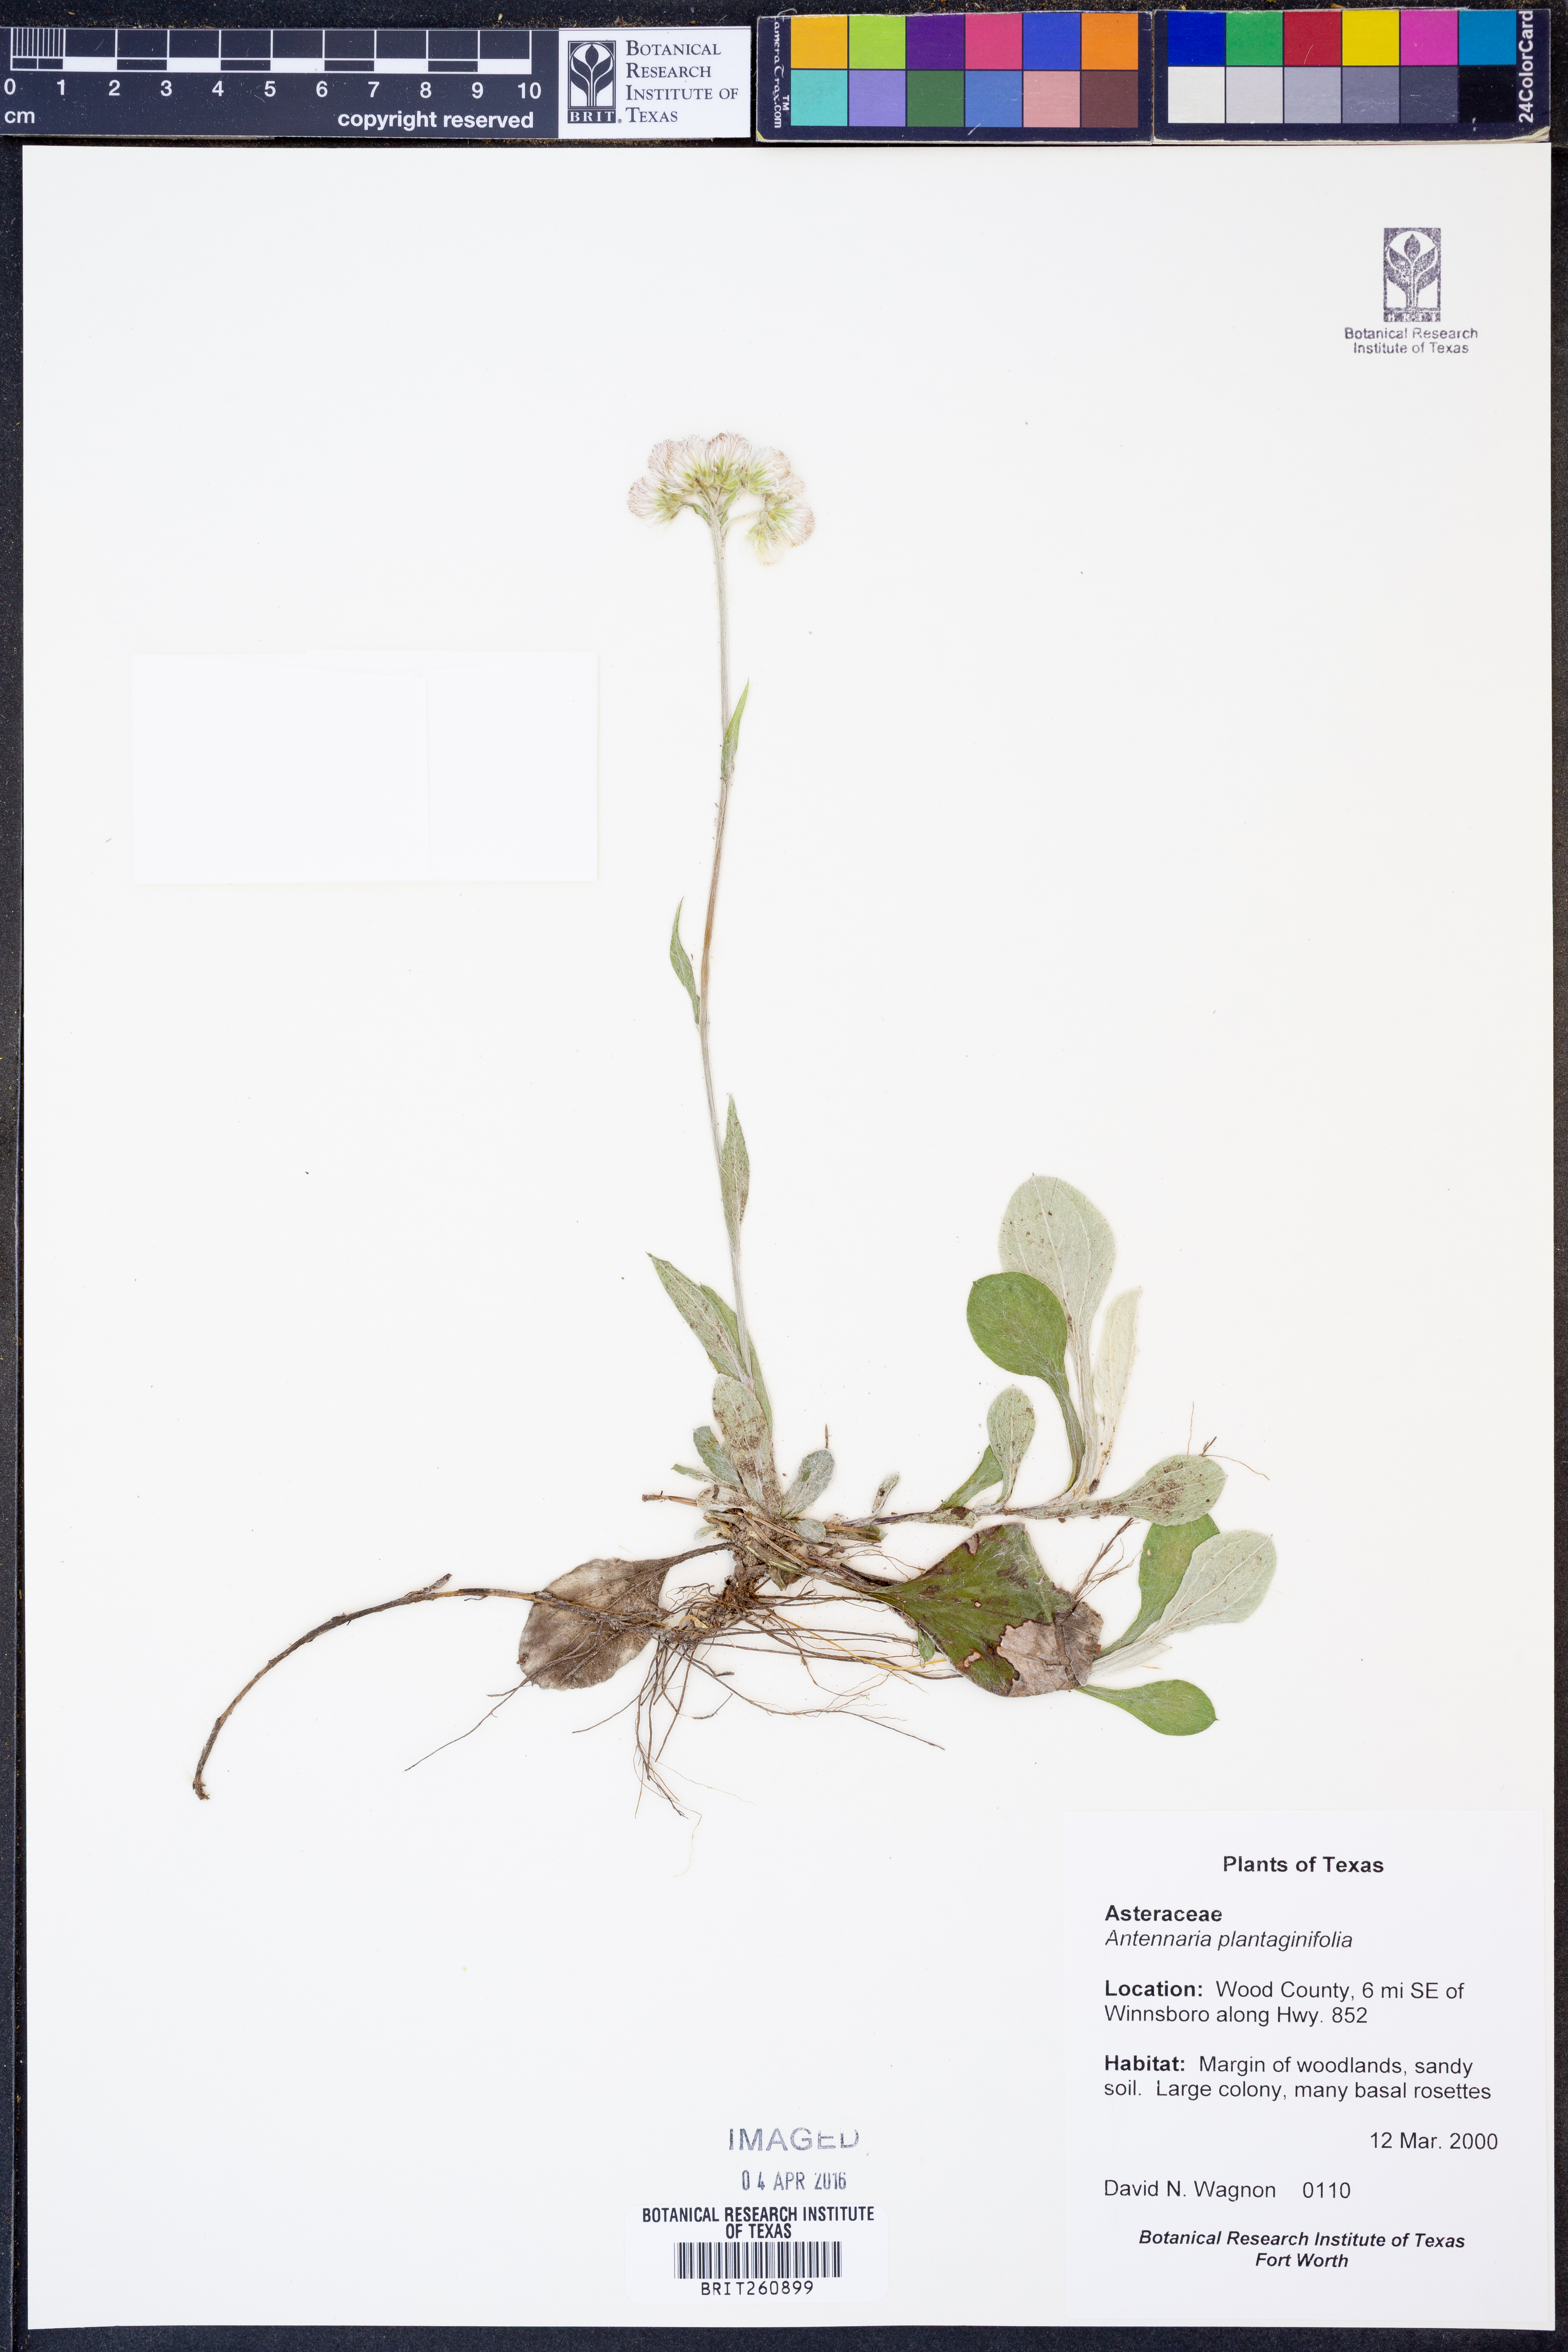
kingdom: Plantae
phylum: Tracheophyta
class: Magnoliopsida
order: Asterales
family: Asteraceae
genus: Antennaria
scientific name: Antennaria plantaginifolia
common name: Plantain-leaved pussytoes
